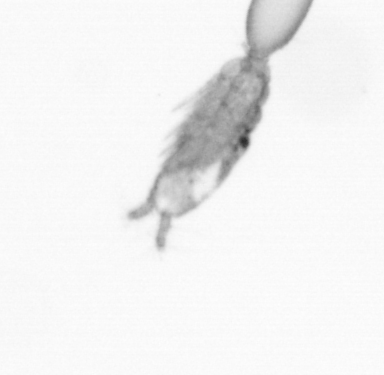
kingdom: Animalia
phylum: Annelida
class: Polychaeta
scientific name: Polychaeta
